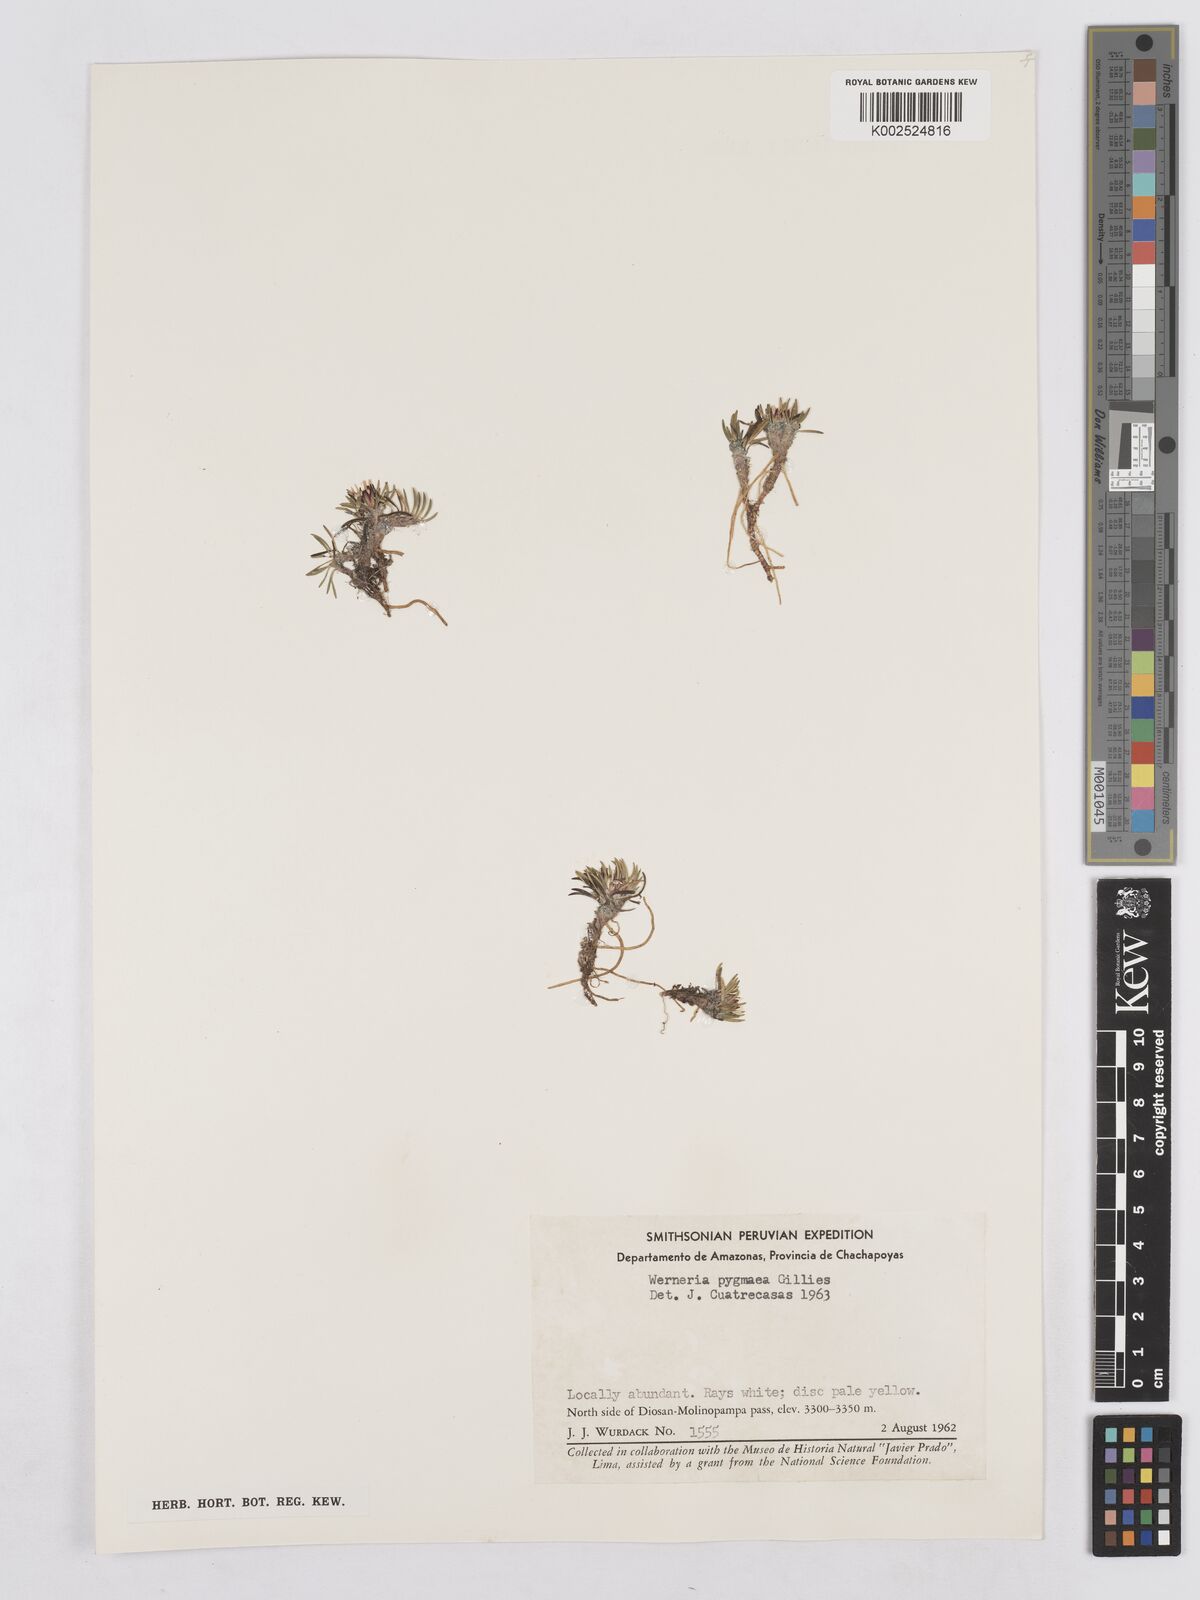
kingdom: Plantae
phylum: Tracheophyta
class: Magnoliopsida
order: Asterales
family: Asteraceae
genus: Rockhausenia
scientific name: Rockhausenia pygmaea
